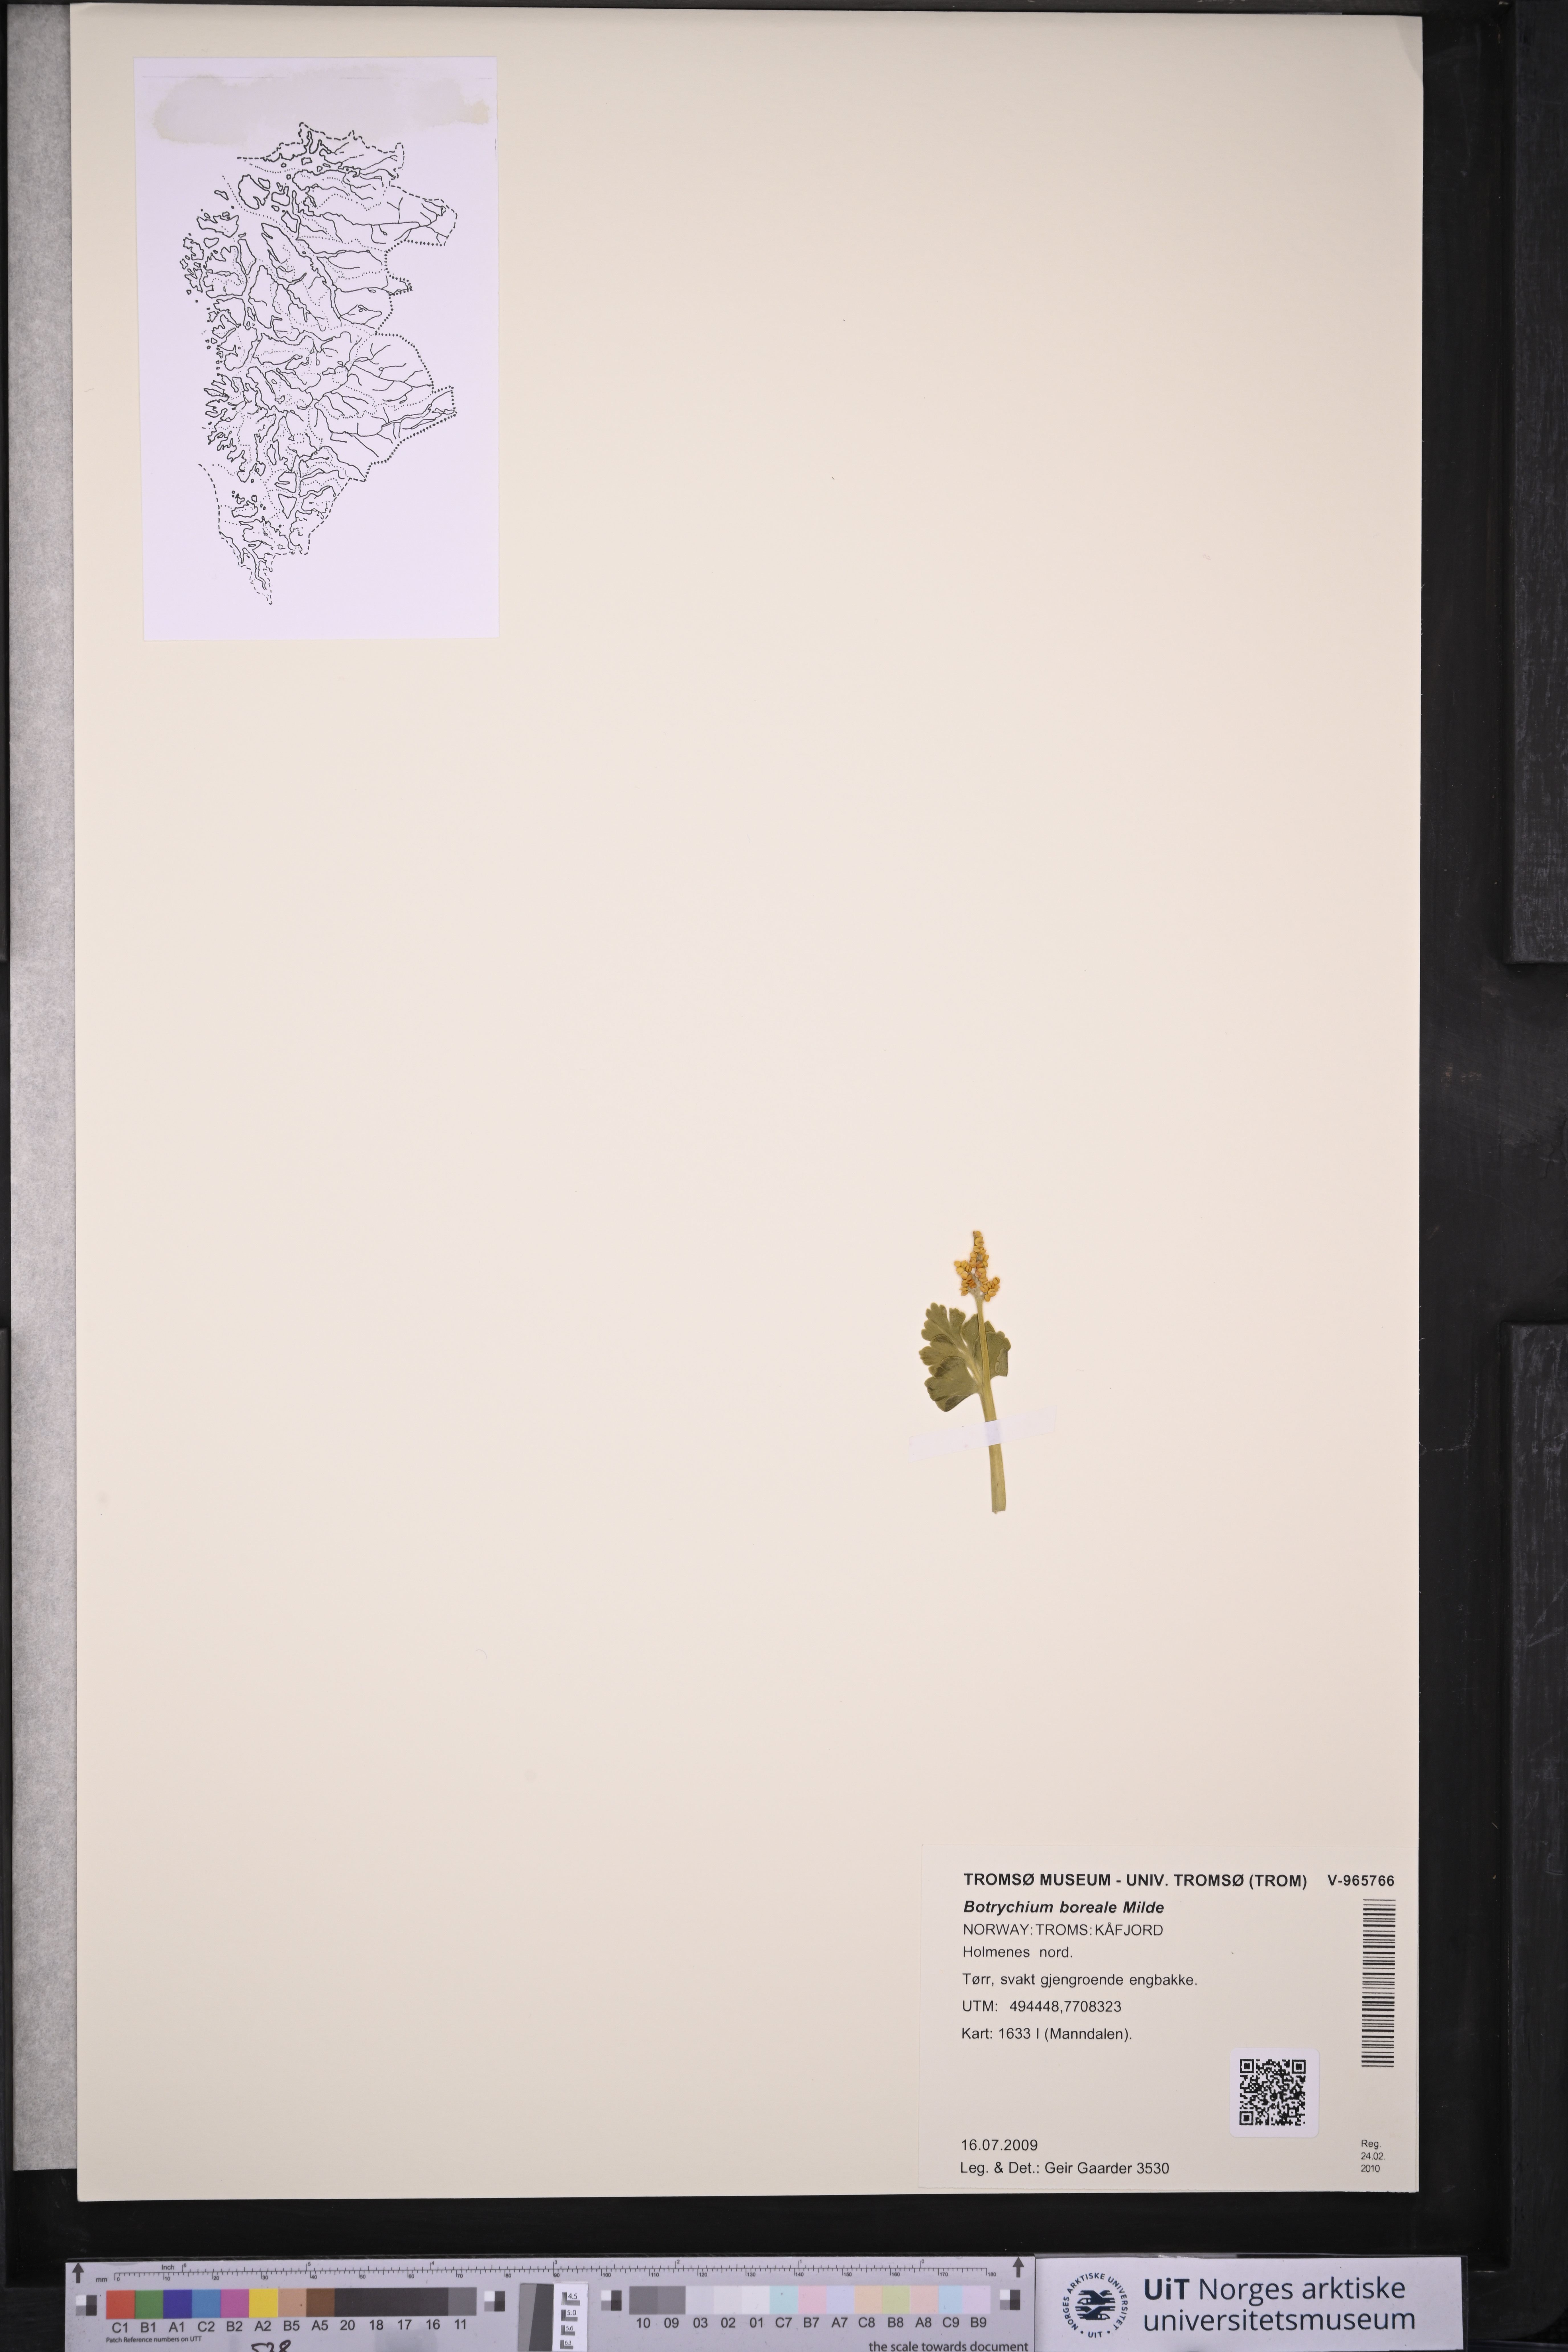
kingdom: Plantae
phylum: Tracheophyta
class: Polypodiopsida
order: Ophioglossales
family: Ophioglossaceae
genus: Botrychium
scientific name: Botrychium boreale
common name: Boreal moonwort
